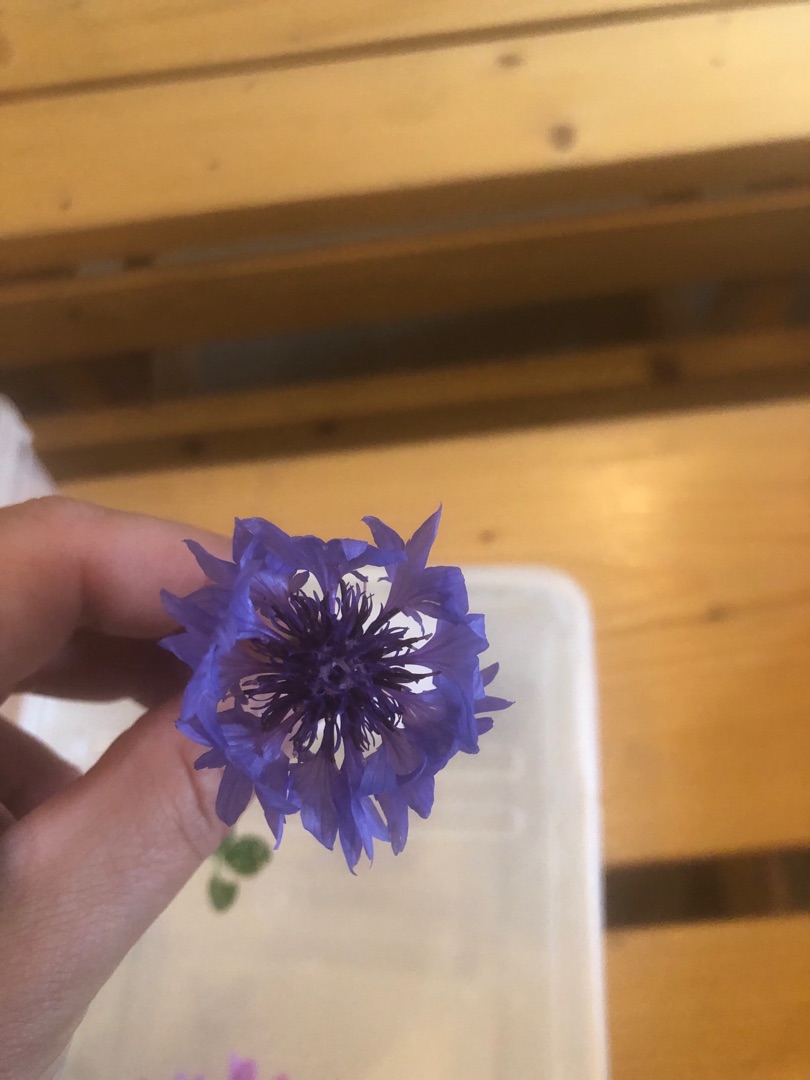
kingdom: Plantae
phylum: Tracheophyta
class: Magnoliopsida
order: Asterales
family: Asteraceae
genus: Centaurea
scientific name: Centaurea cyanus
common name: Kornblomst
